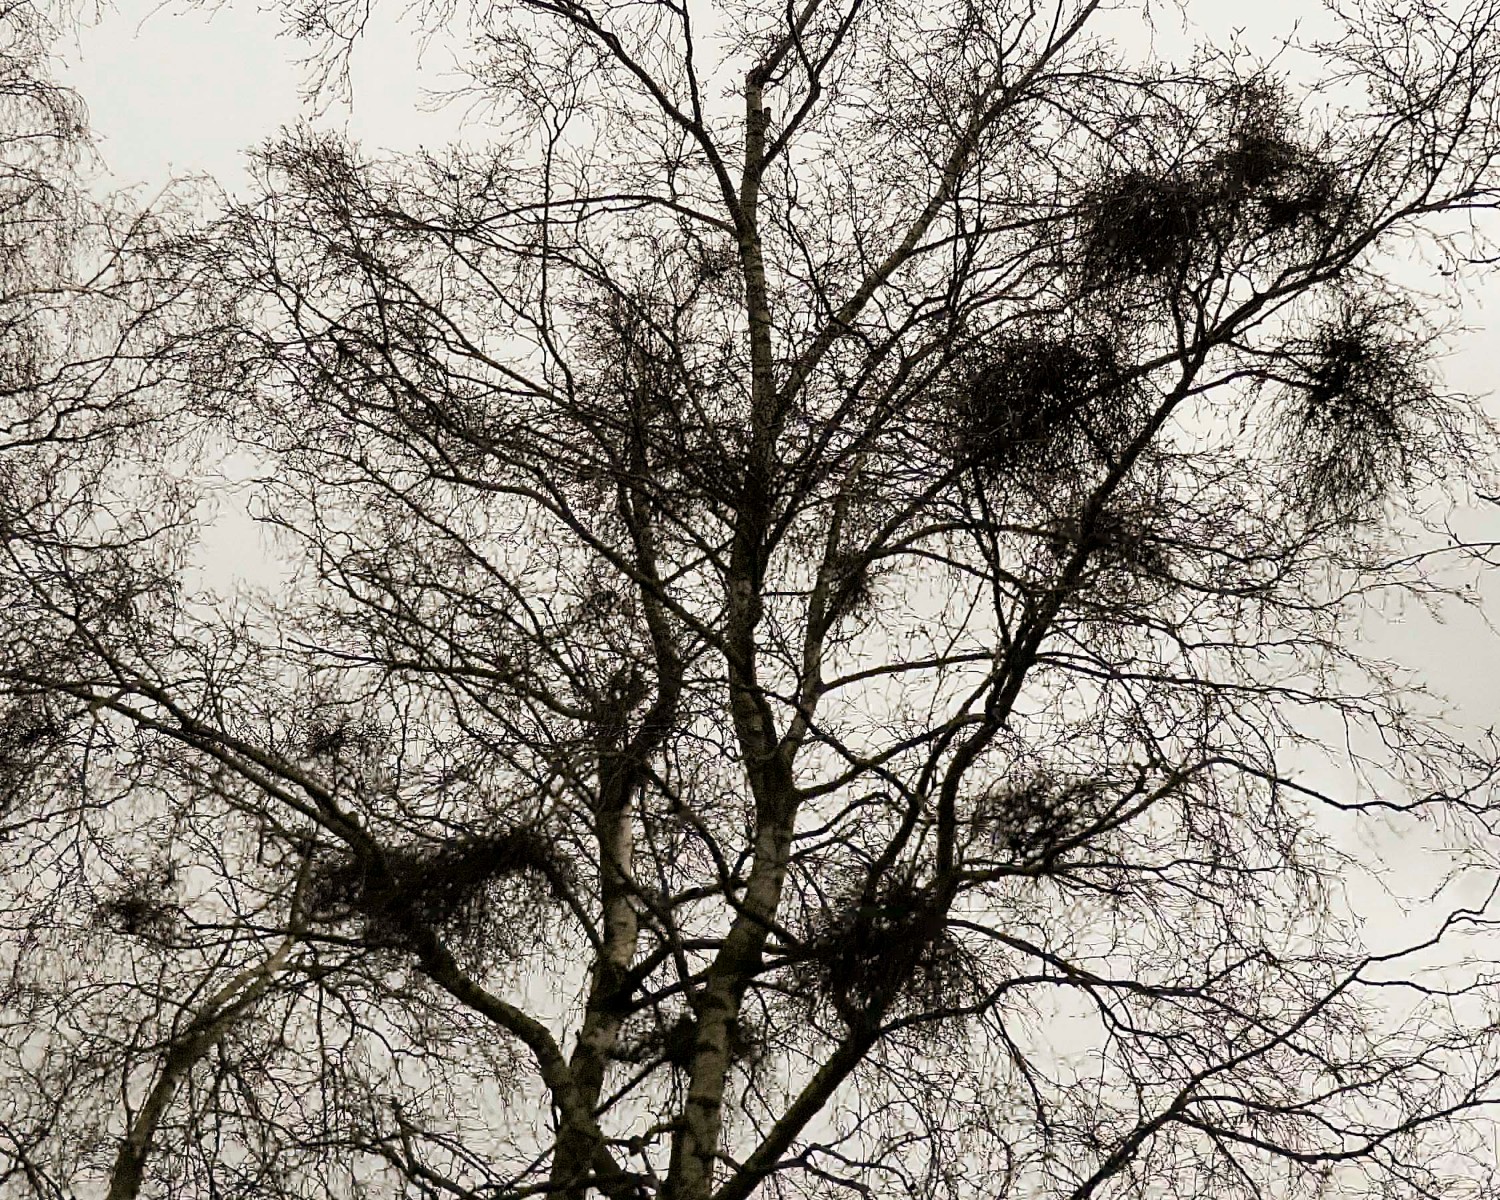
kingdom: Fungi
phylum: Ascomycota
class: Taphrinomycetes
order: Taphrinales
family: Taphrinaceae
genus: Taphrina
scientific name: Taphrina betulina
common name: hekse-sækdug
